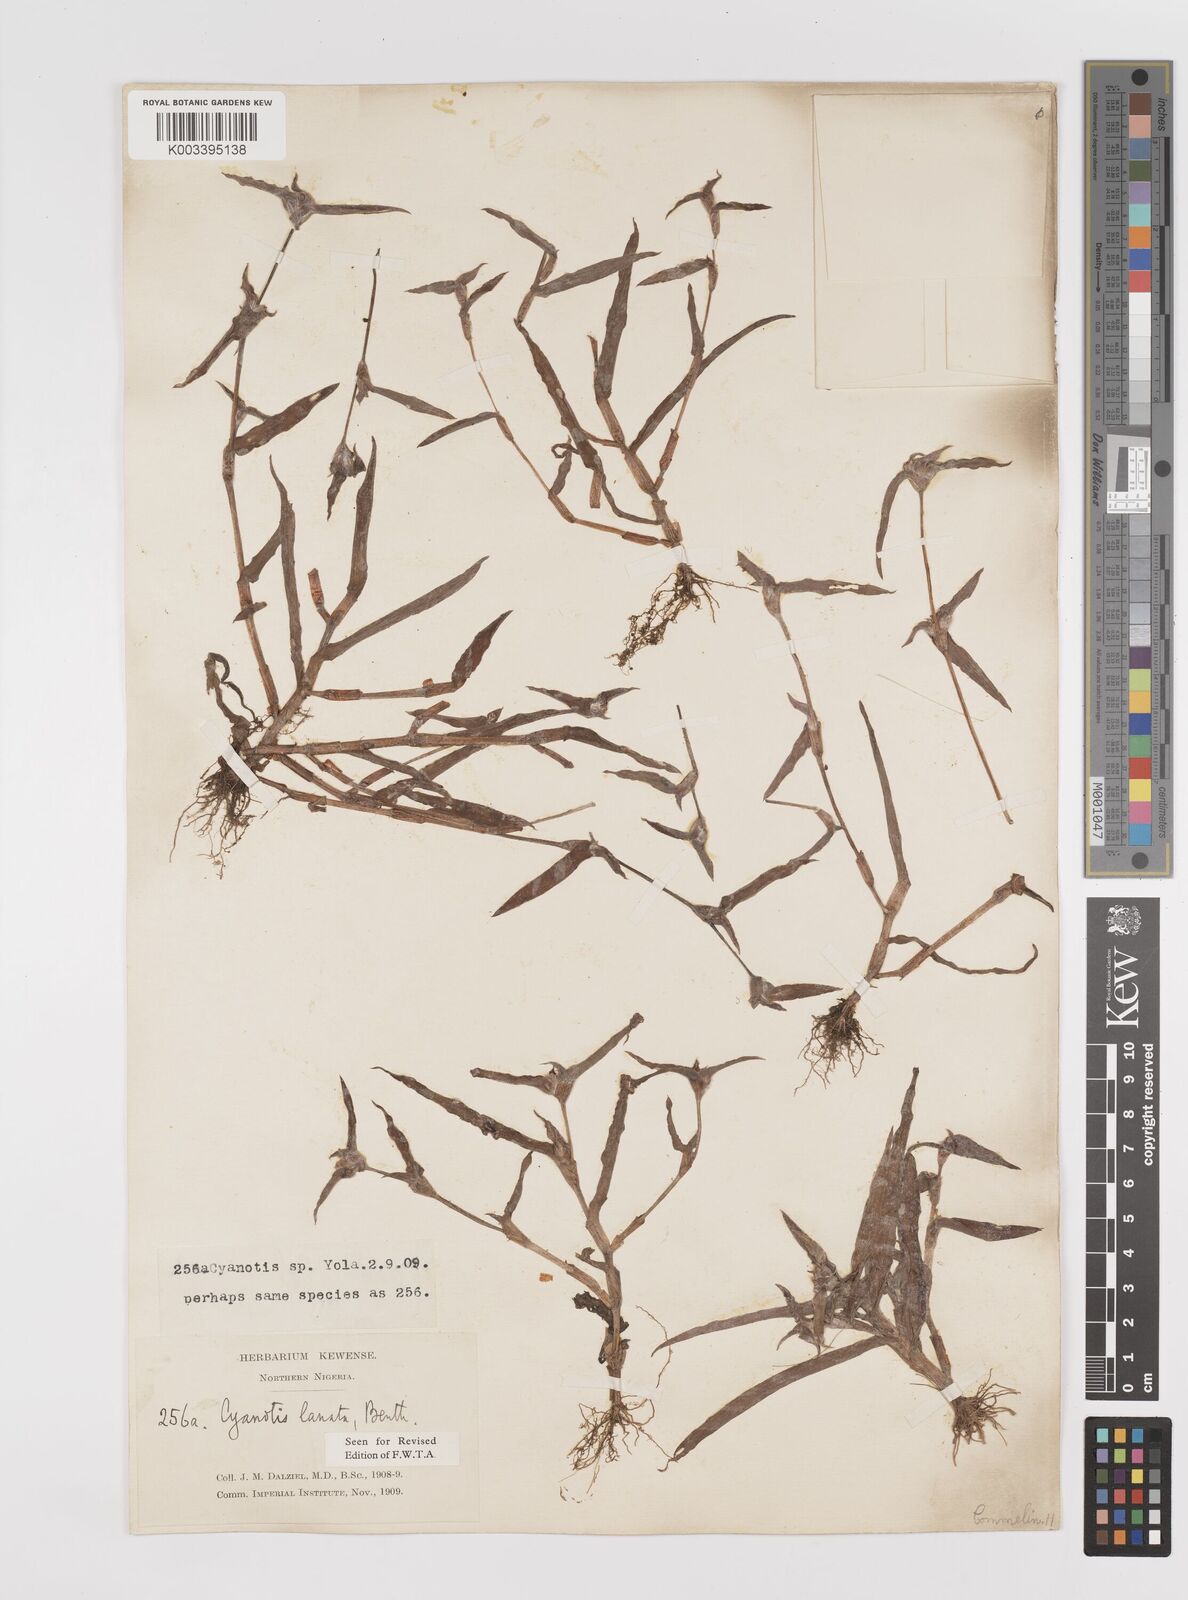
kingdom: Plantae
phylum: Tracheophyta
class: Liliopsida
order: Commelinales
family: Commelinaceae
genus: Cyanotis
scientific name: Cyanotis lanata
